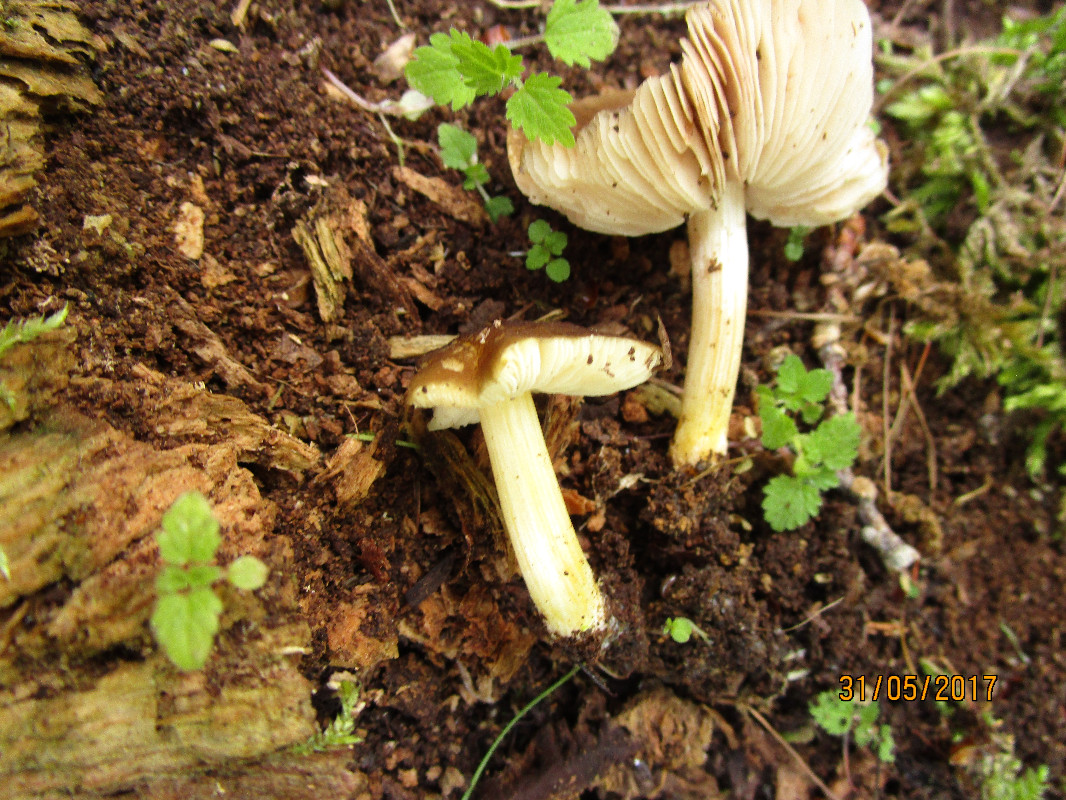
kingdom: Fungi
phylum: Basidiomycota
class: Agaricomycetes
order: Agaricales
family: Pluteaceae
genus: Pluteus
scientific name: Pluteus romellii
